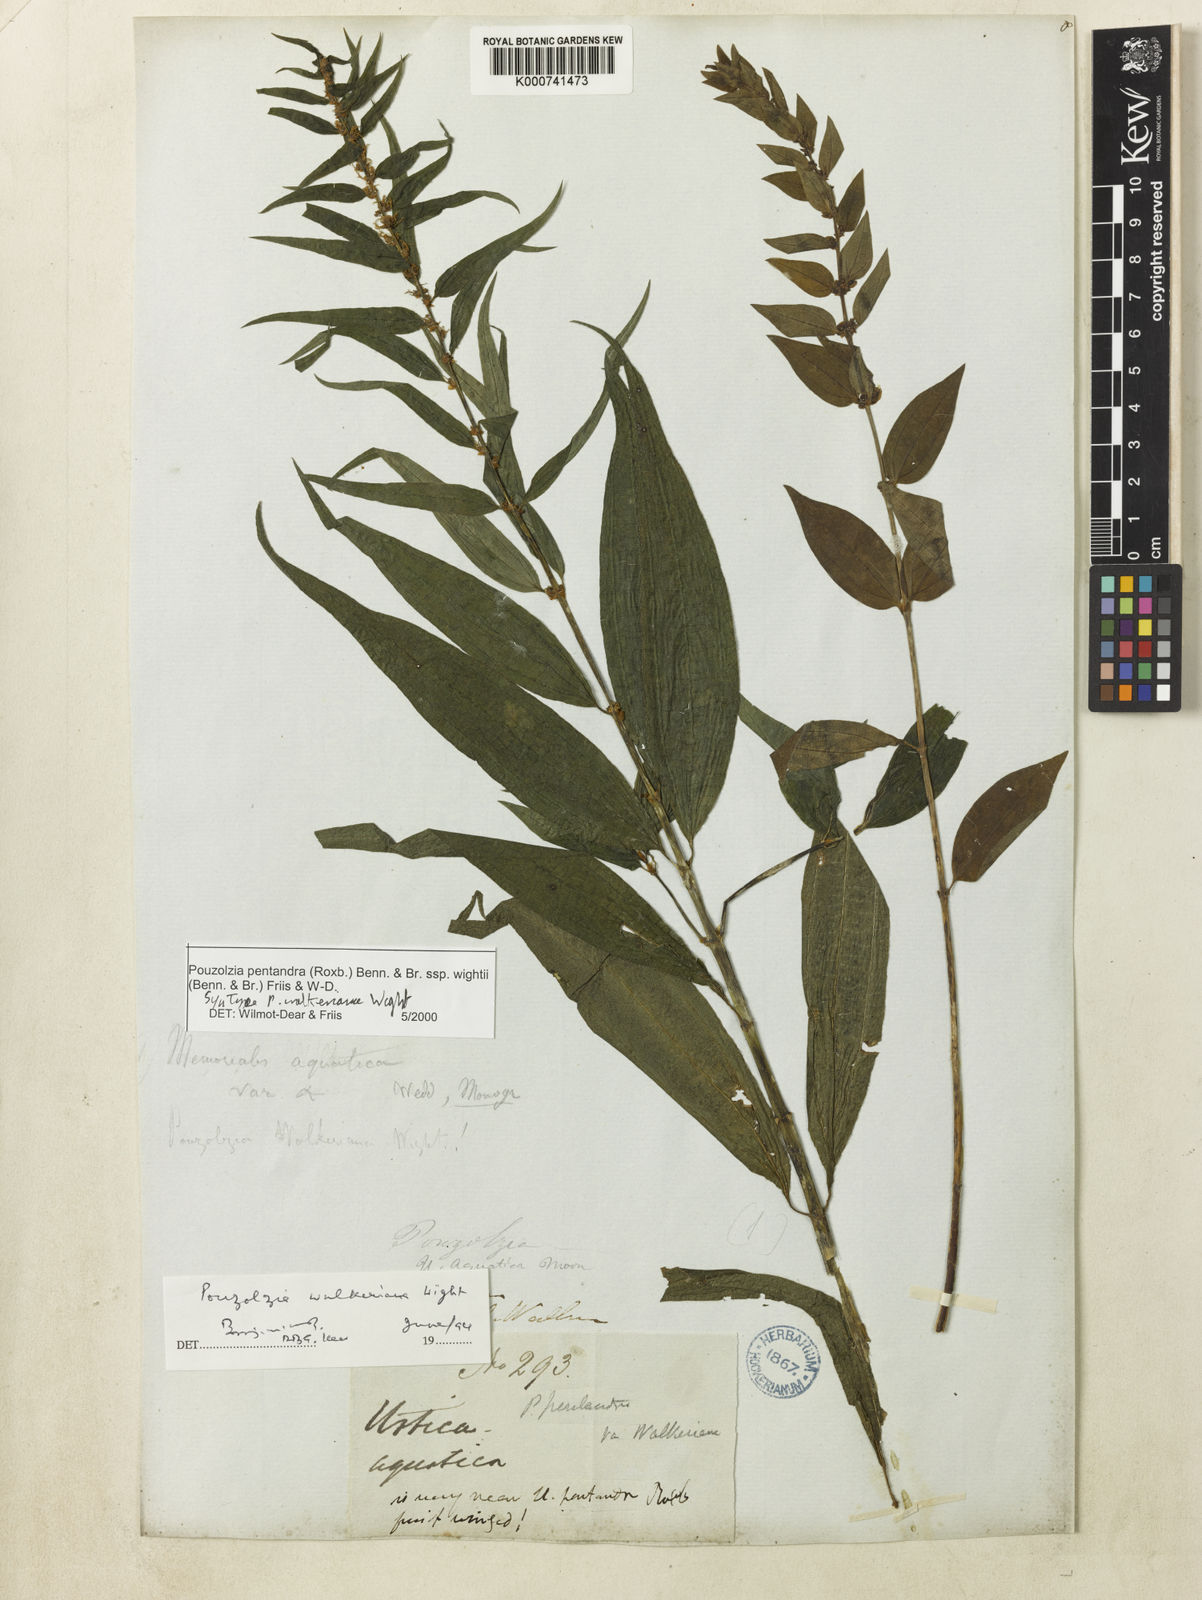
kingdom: Plantae
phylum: Tracheophyta
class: Magnoliopsida
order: Rosales
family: Urticaceae
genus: Gonostegia
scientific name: Gonostegia pentandra
